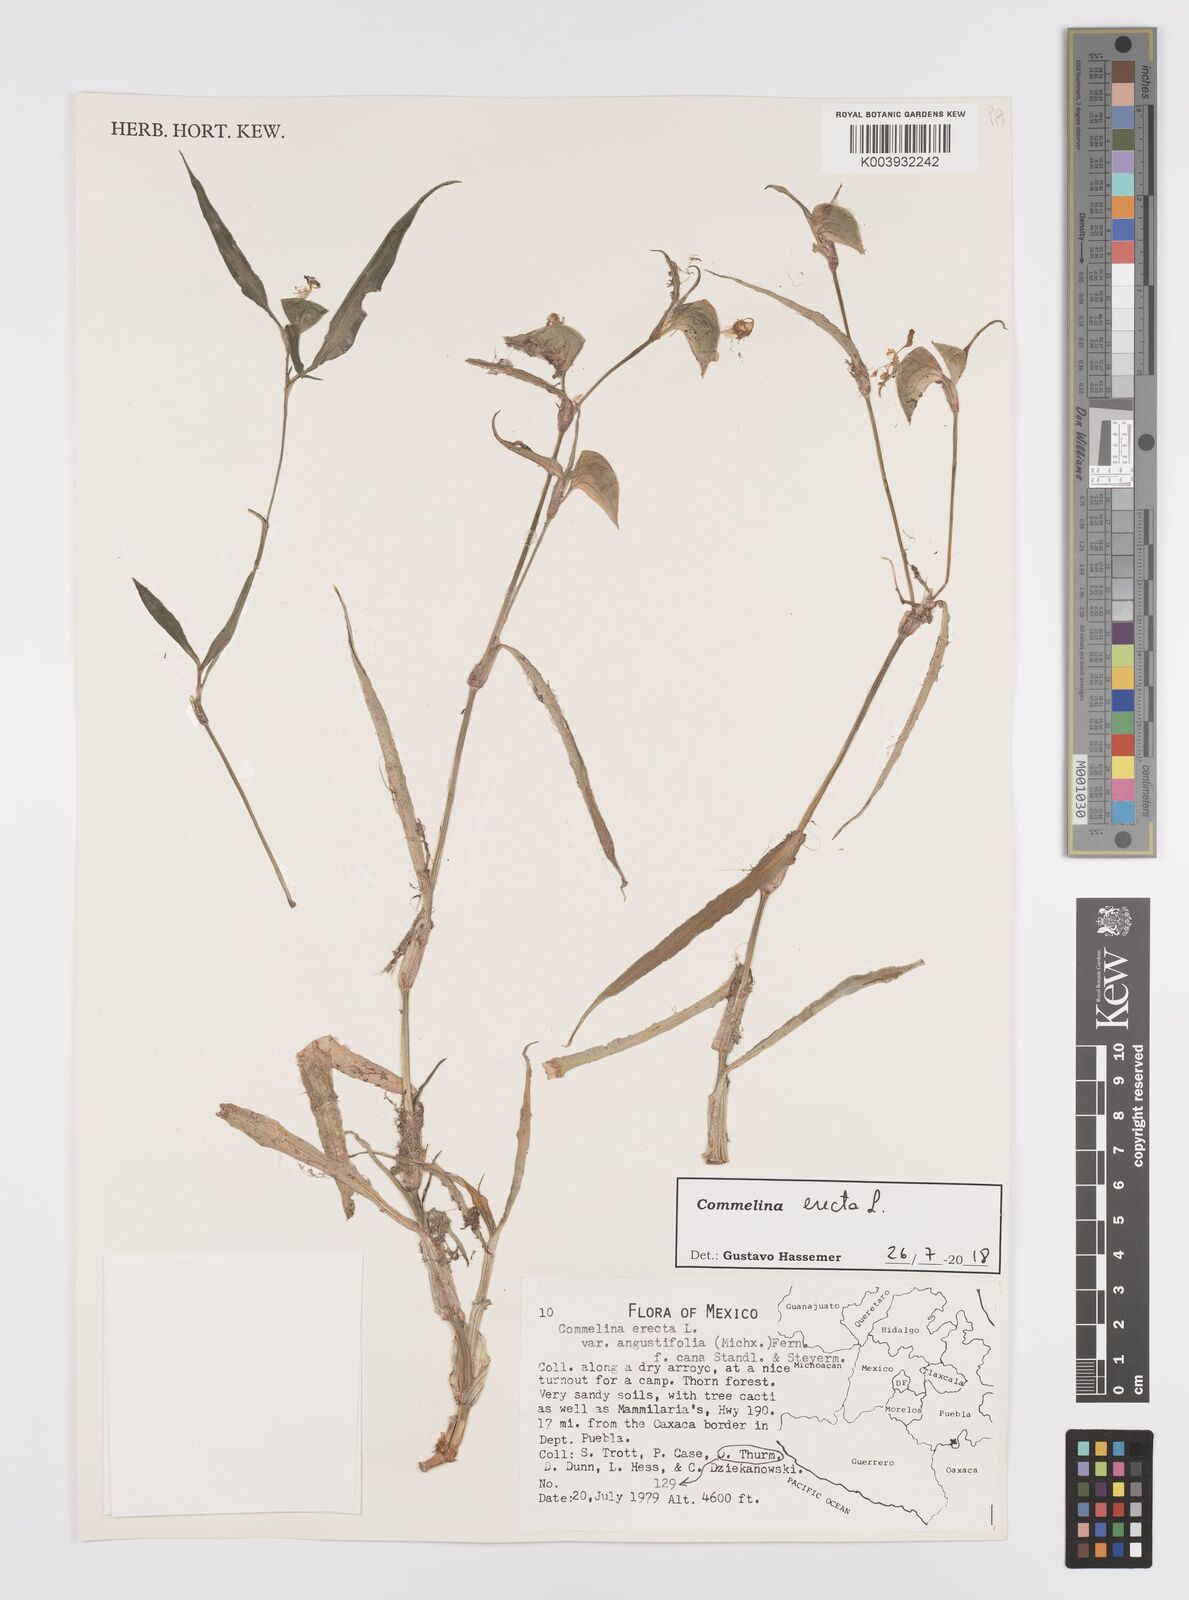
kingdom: Plantae
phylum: Tracheophyta
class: Liliopsida
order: Commelinales
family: Commelinaceae
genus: Commelina
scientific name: Commelina erecta
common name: Blousel blommetjie
